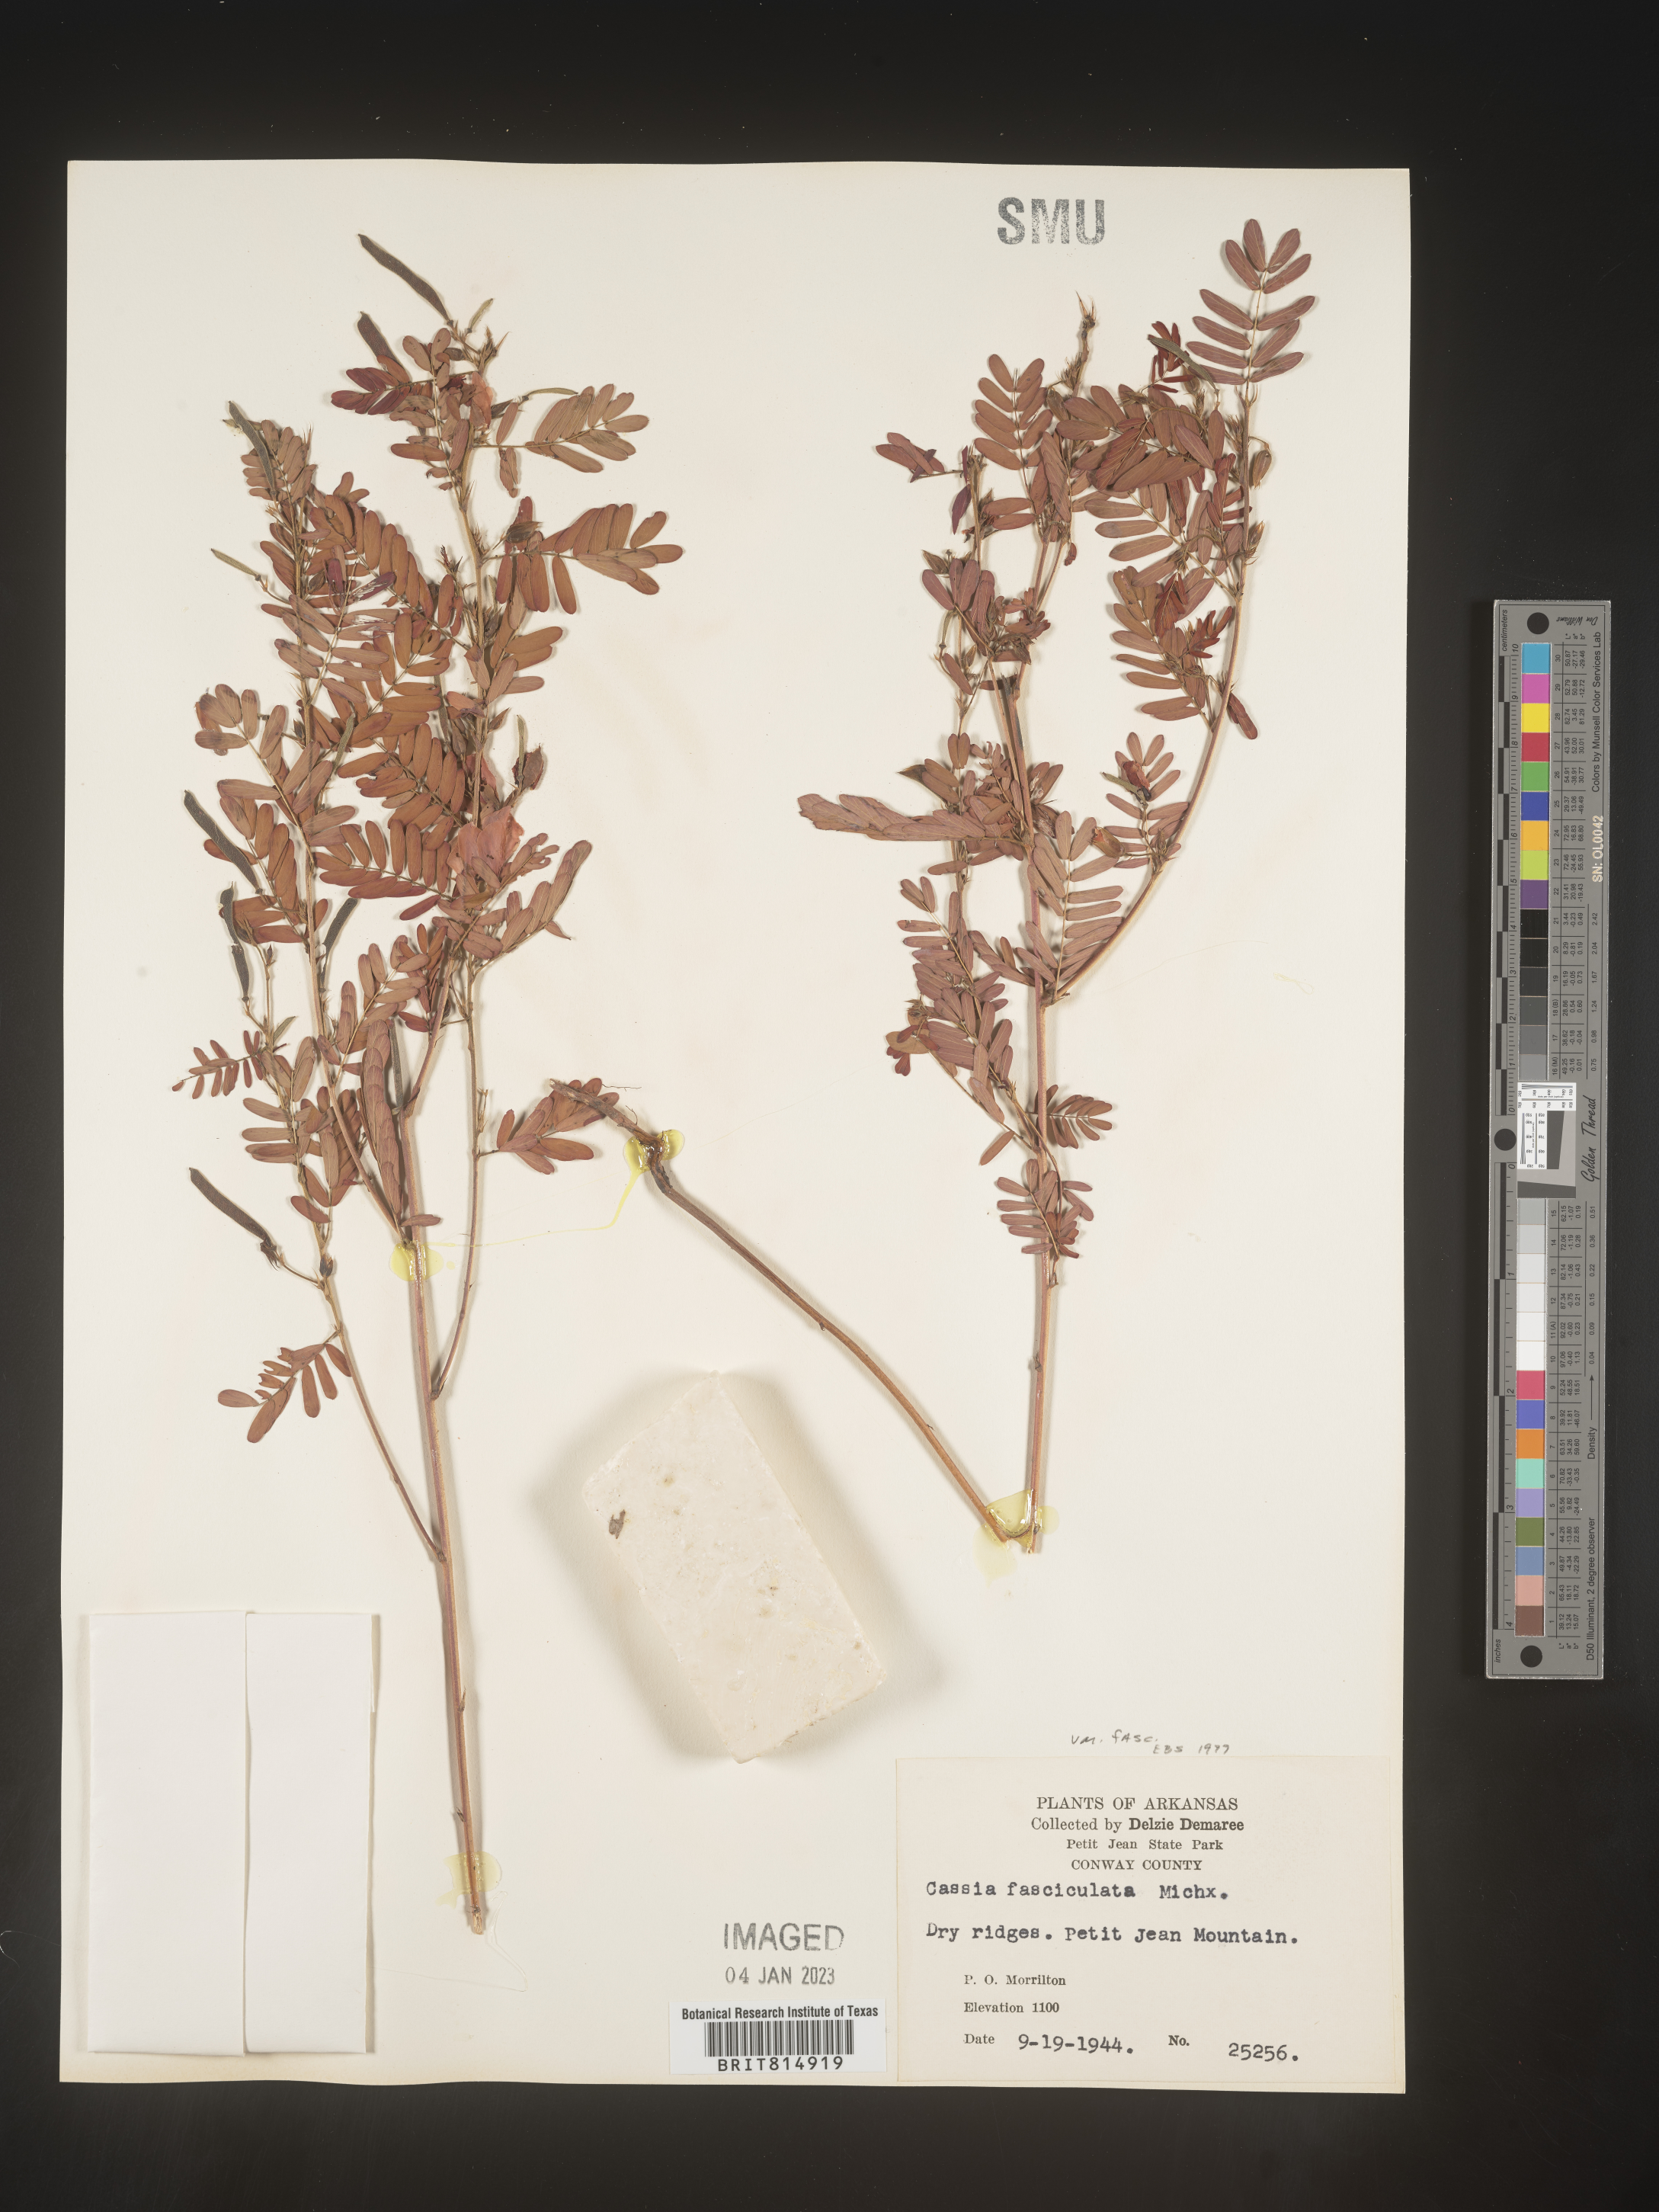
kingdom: Plantae
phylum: Tracheophyta
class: Magnoliopsida
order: Fabales
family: Fabaceae
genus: Chamaecrista
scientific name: Chamaecrista fasciculata
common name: Golden cassia
